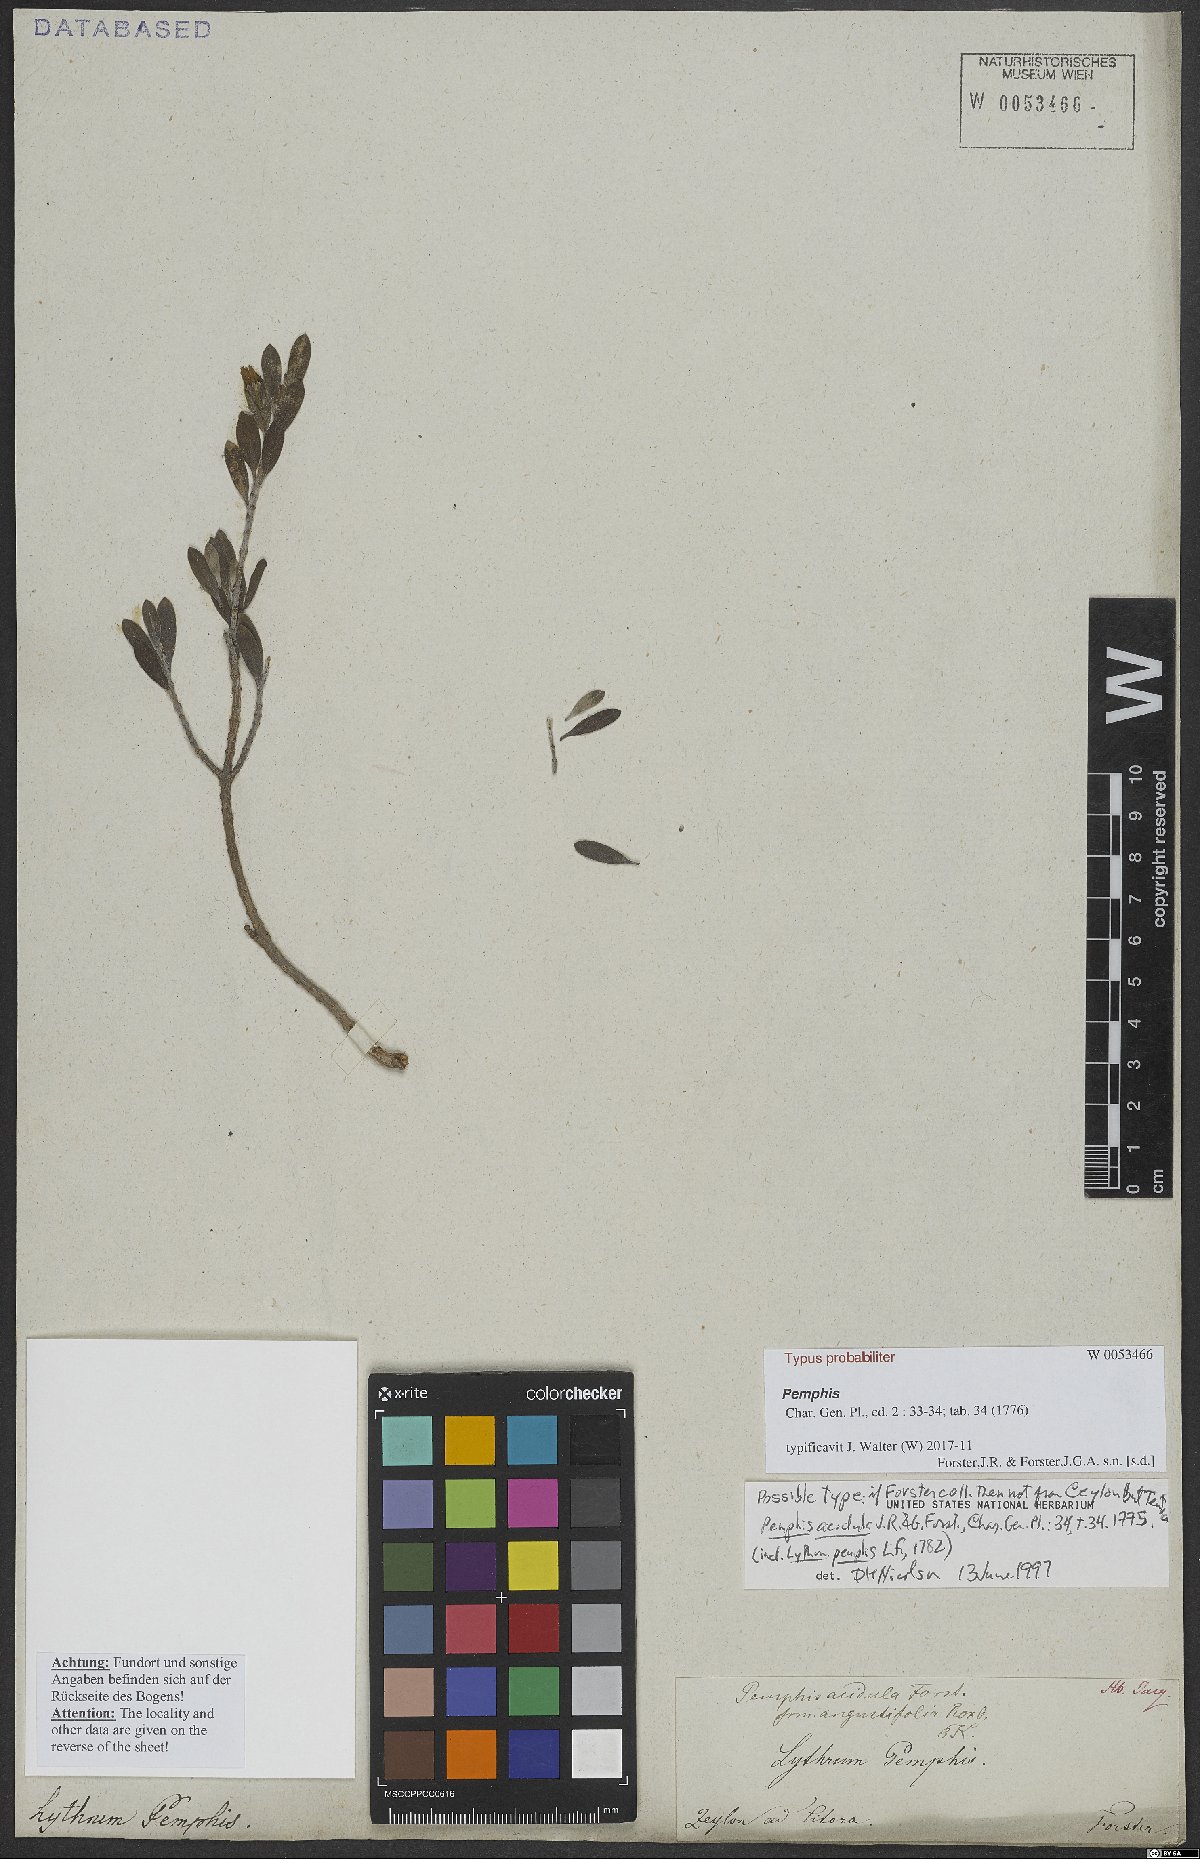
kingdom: Plantae
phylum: Tracheophyta
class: Magnoliopsida
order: Myrtales
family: Lythraceae
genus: Pemphis
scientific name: Pemphis acidula
